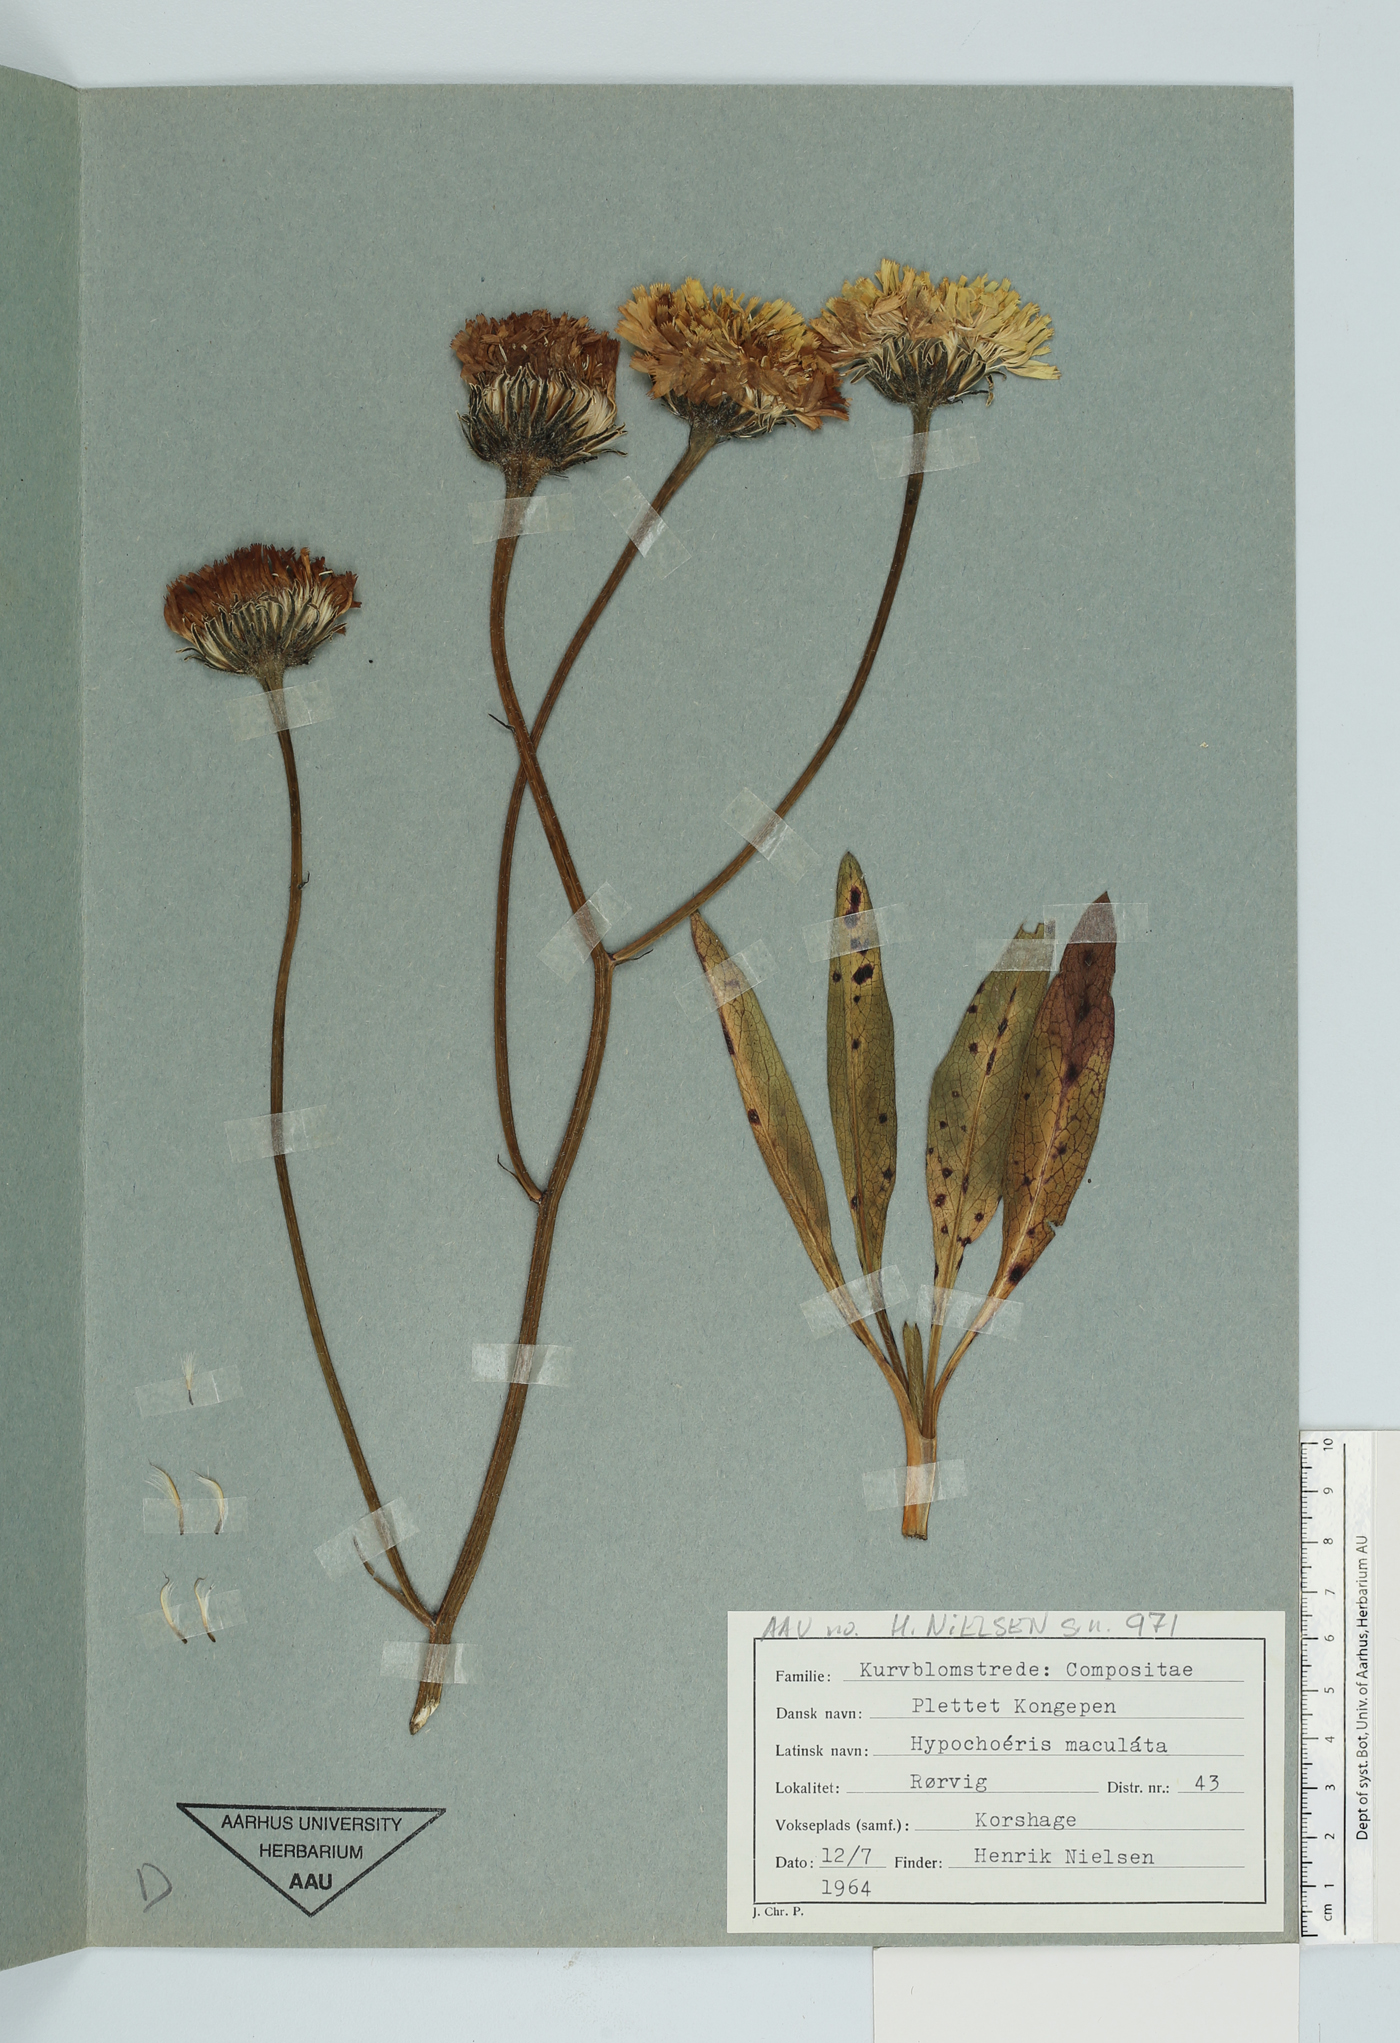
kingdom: Plantae
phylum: Tracheophyta
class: Magnoliopsida
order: Asterales
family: Asteraceae
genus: Trommsdorffia
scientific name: Trommsdorffia maculata
